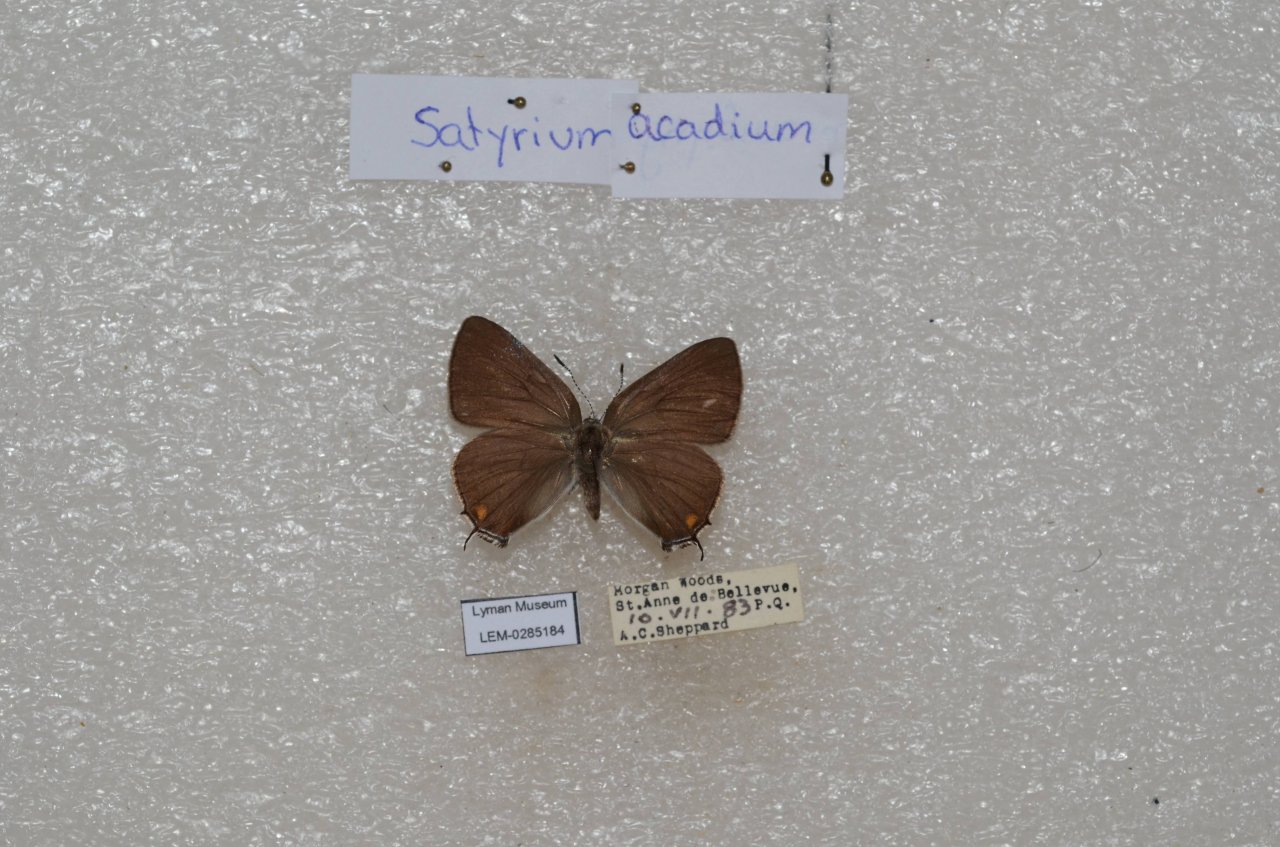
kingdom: Animalia
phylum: Arthropoda
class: Insecta
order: Lepidoptera
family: Lycaenidae
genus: Strymon
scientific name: Strymon acadica
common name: Acadian Hairstreak
